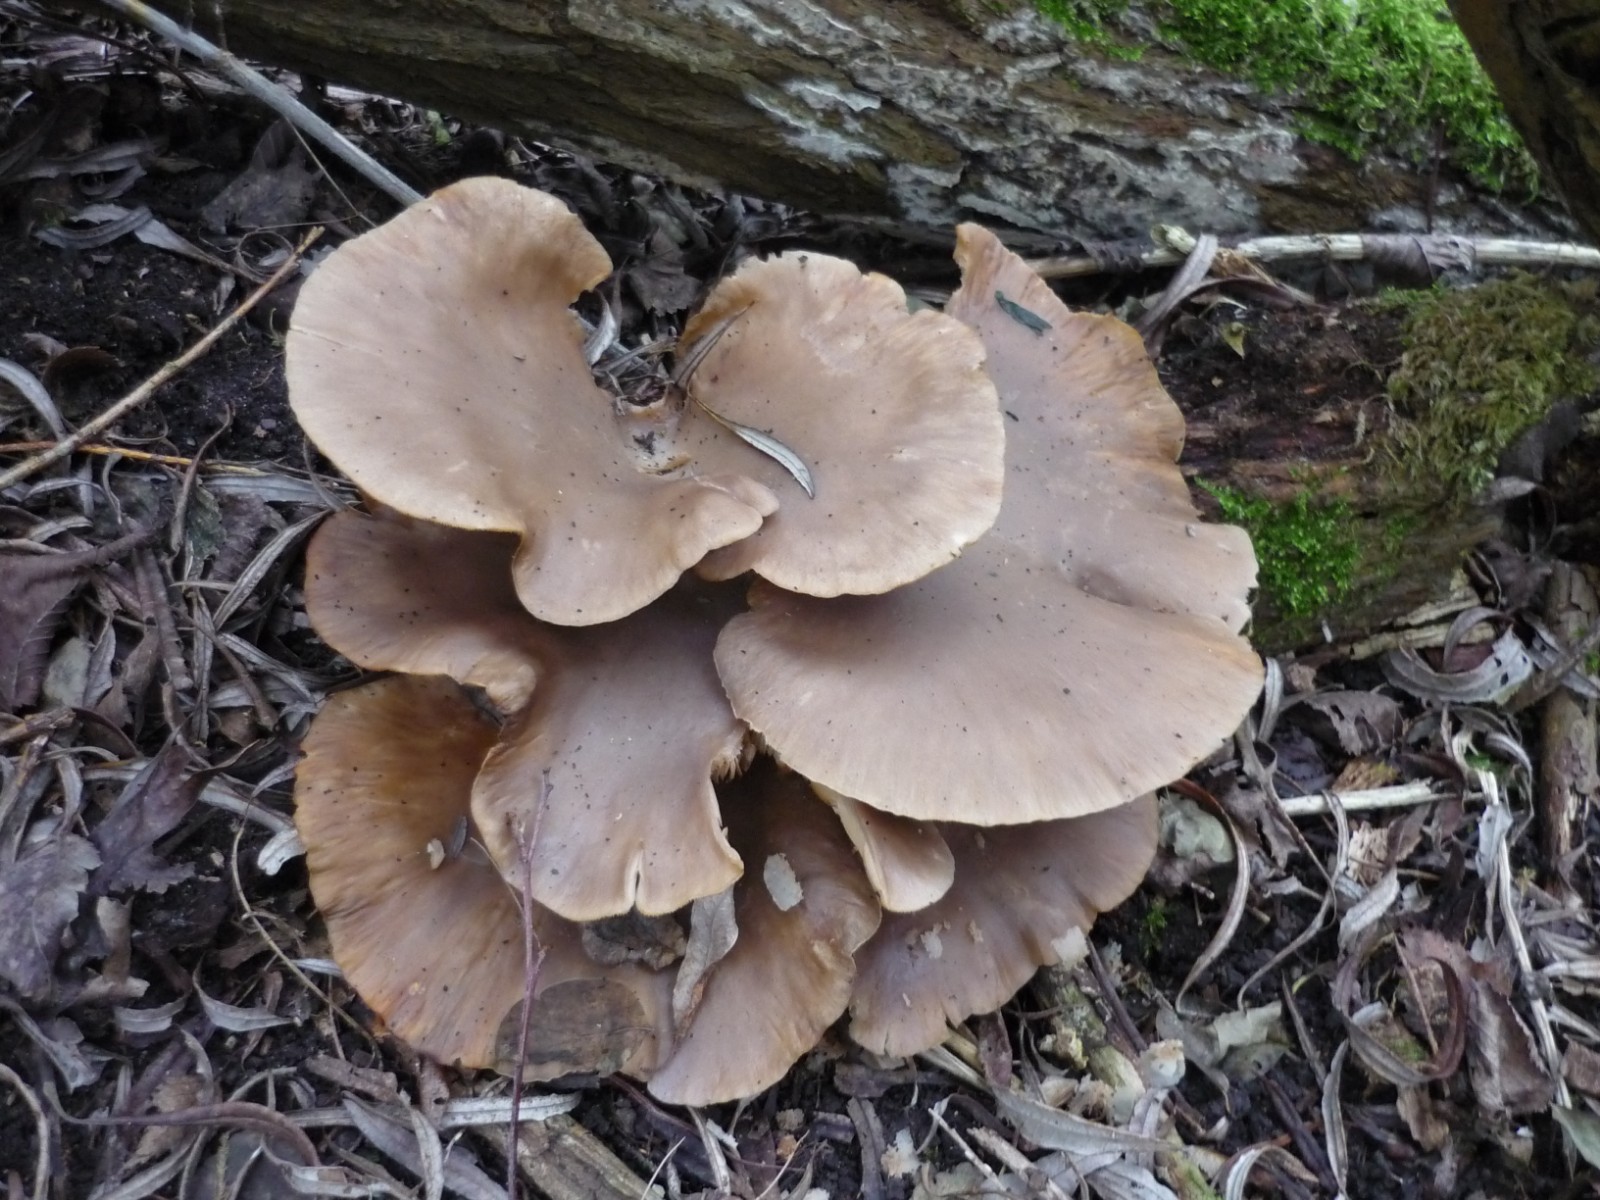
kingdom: Fungi
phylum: Basidiomycota
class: Agaricomycetes
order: Agaricales
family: Pleurotaceae
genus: Pleurotus
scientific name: Pleurotus ostreatus
